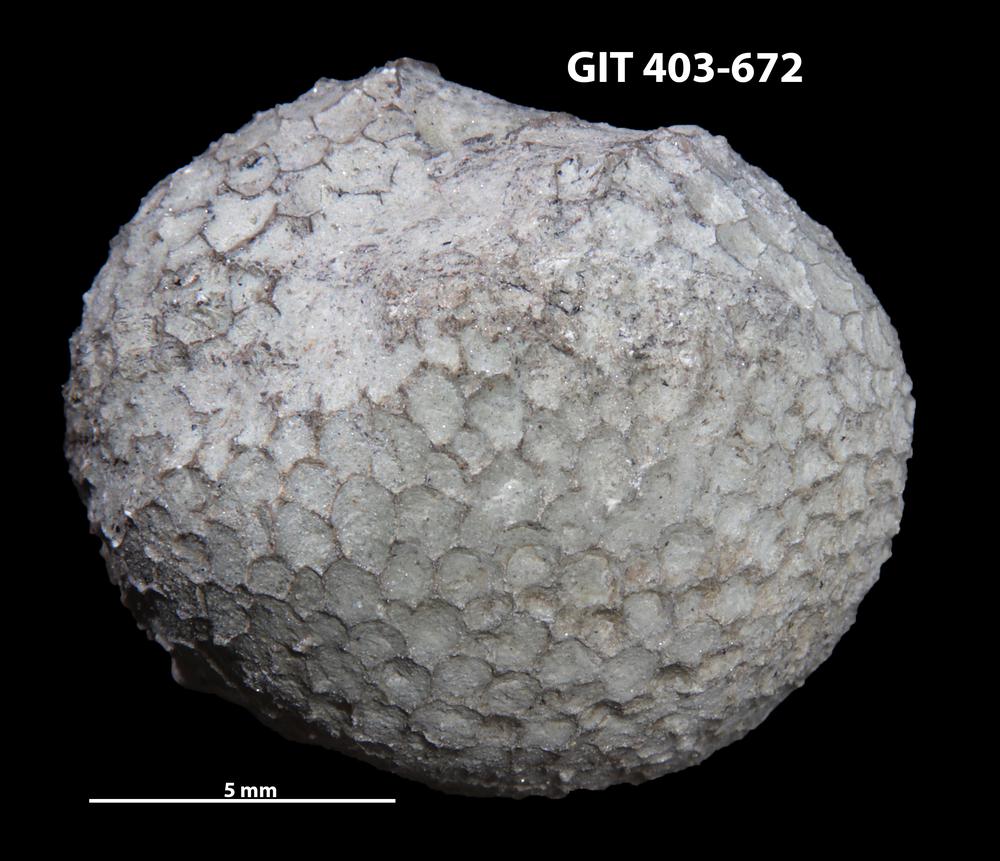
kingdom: Animalia
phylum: Cnidaria
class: Anthozoa
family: Favositidae
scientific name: Favositidae
